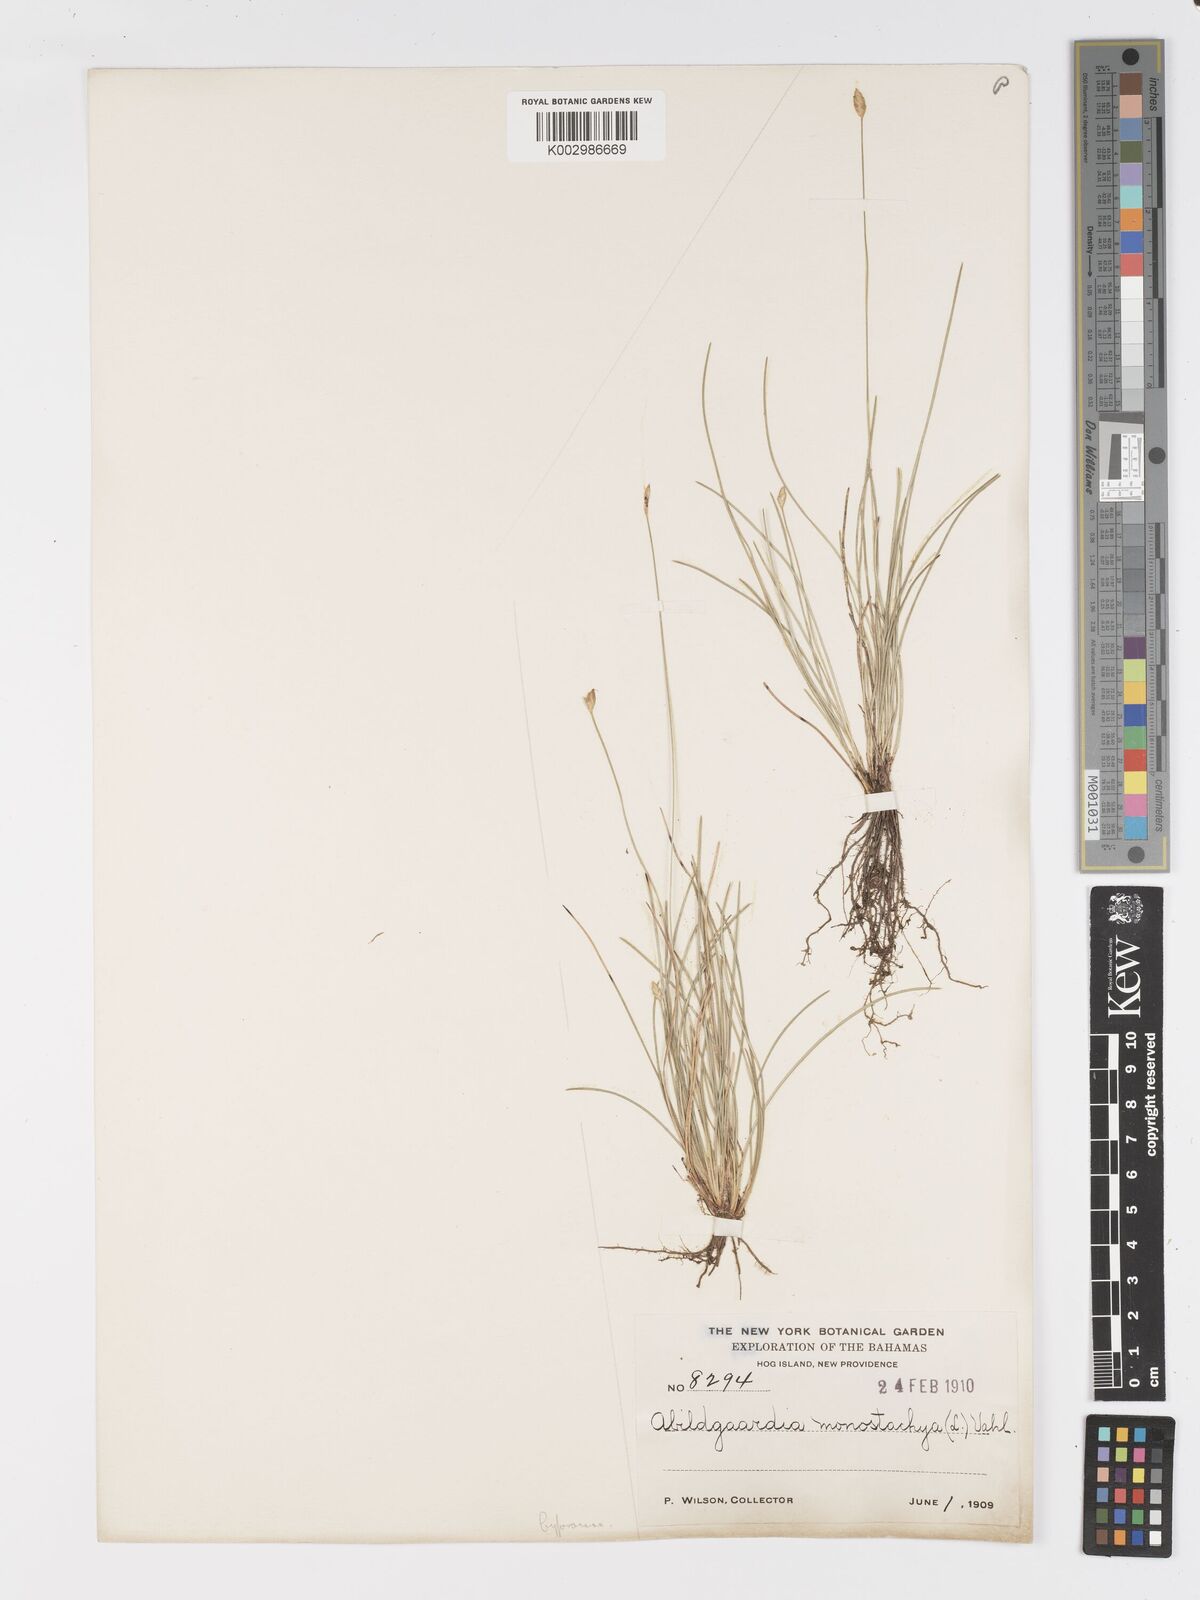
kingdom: Plantae
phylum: Tracheophyta
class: Liliopsida
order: Poales
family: Cyperaceae
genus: Abildgaardia
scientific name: Abildgaardia ovata
